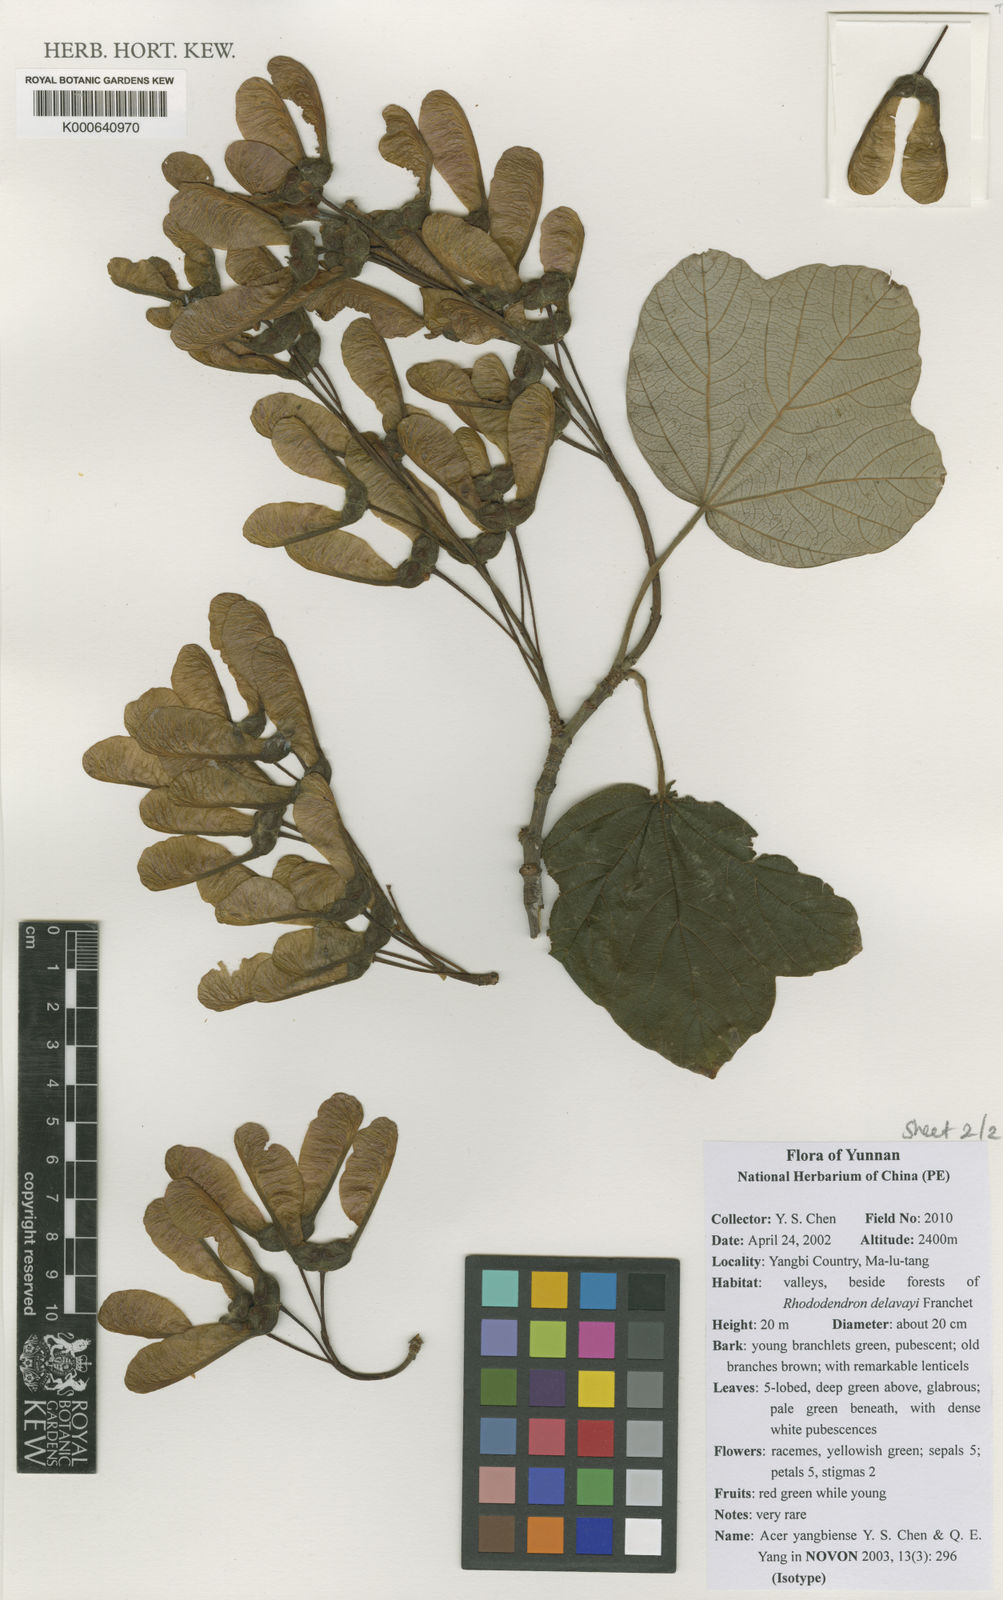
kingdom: Plantae
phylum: Tracheophyta
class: Magnoliopsida
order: Sapindales
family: Sapindaceae
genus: Acer
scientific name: Acer yangbiense
